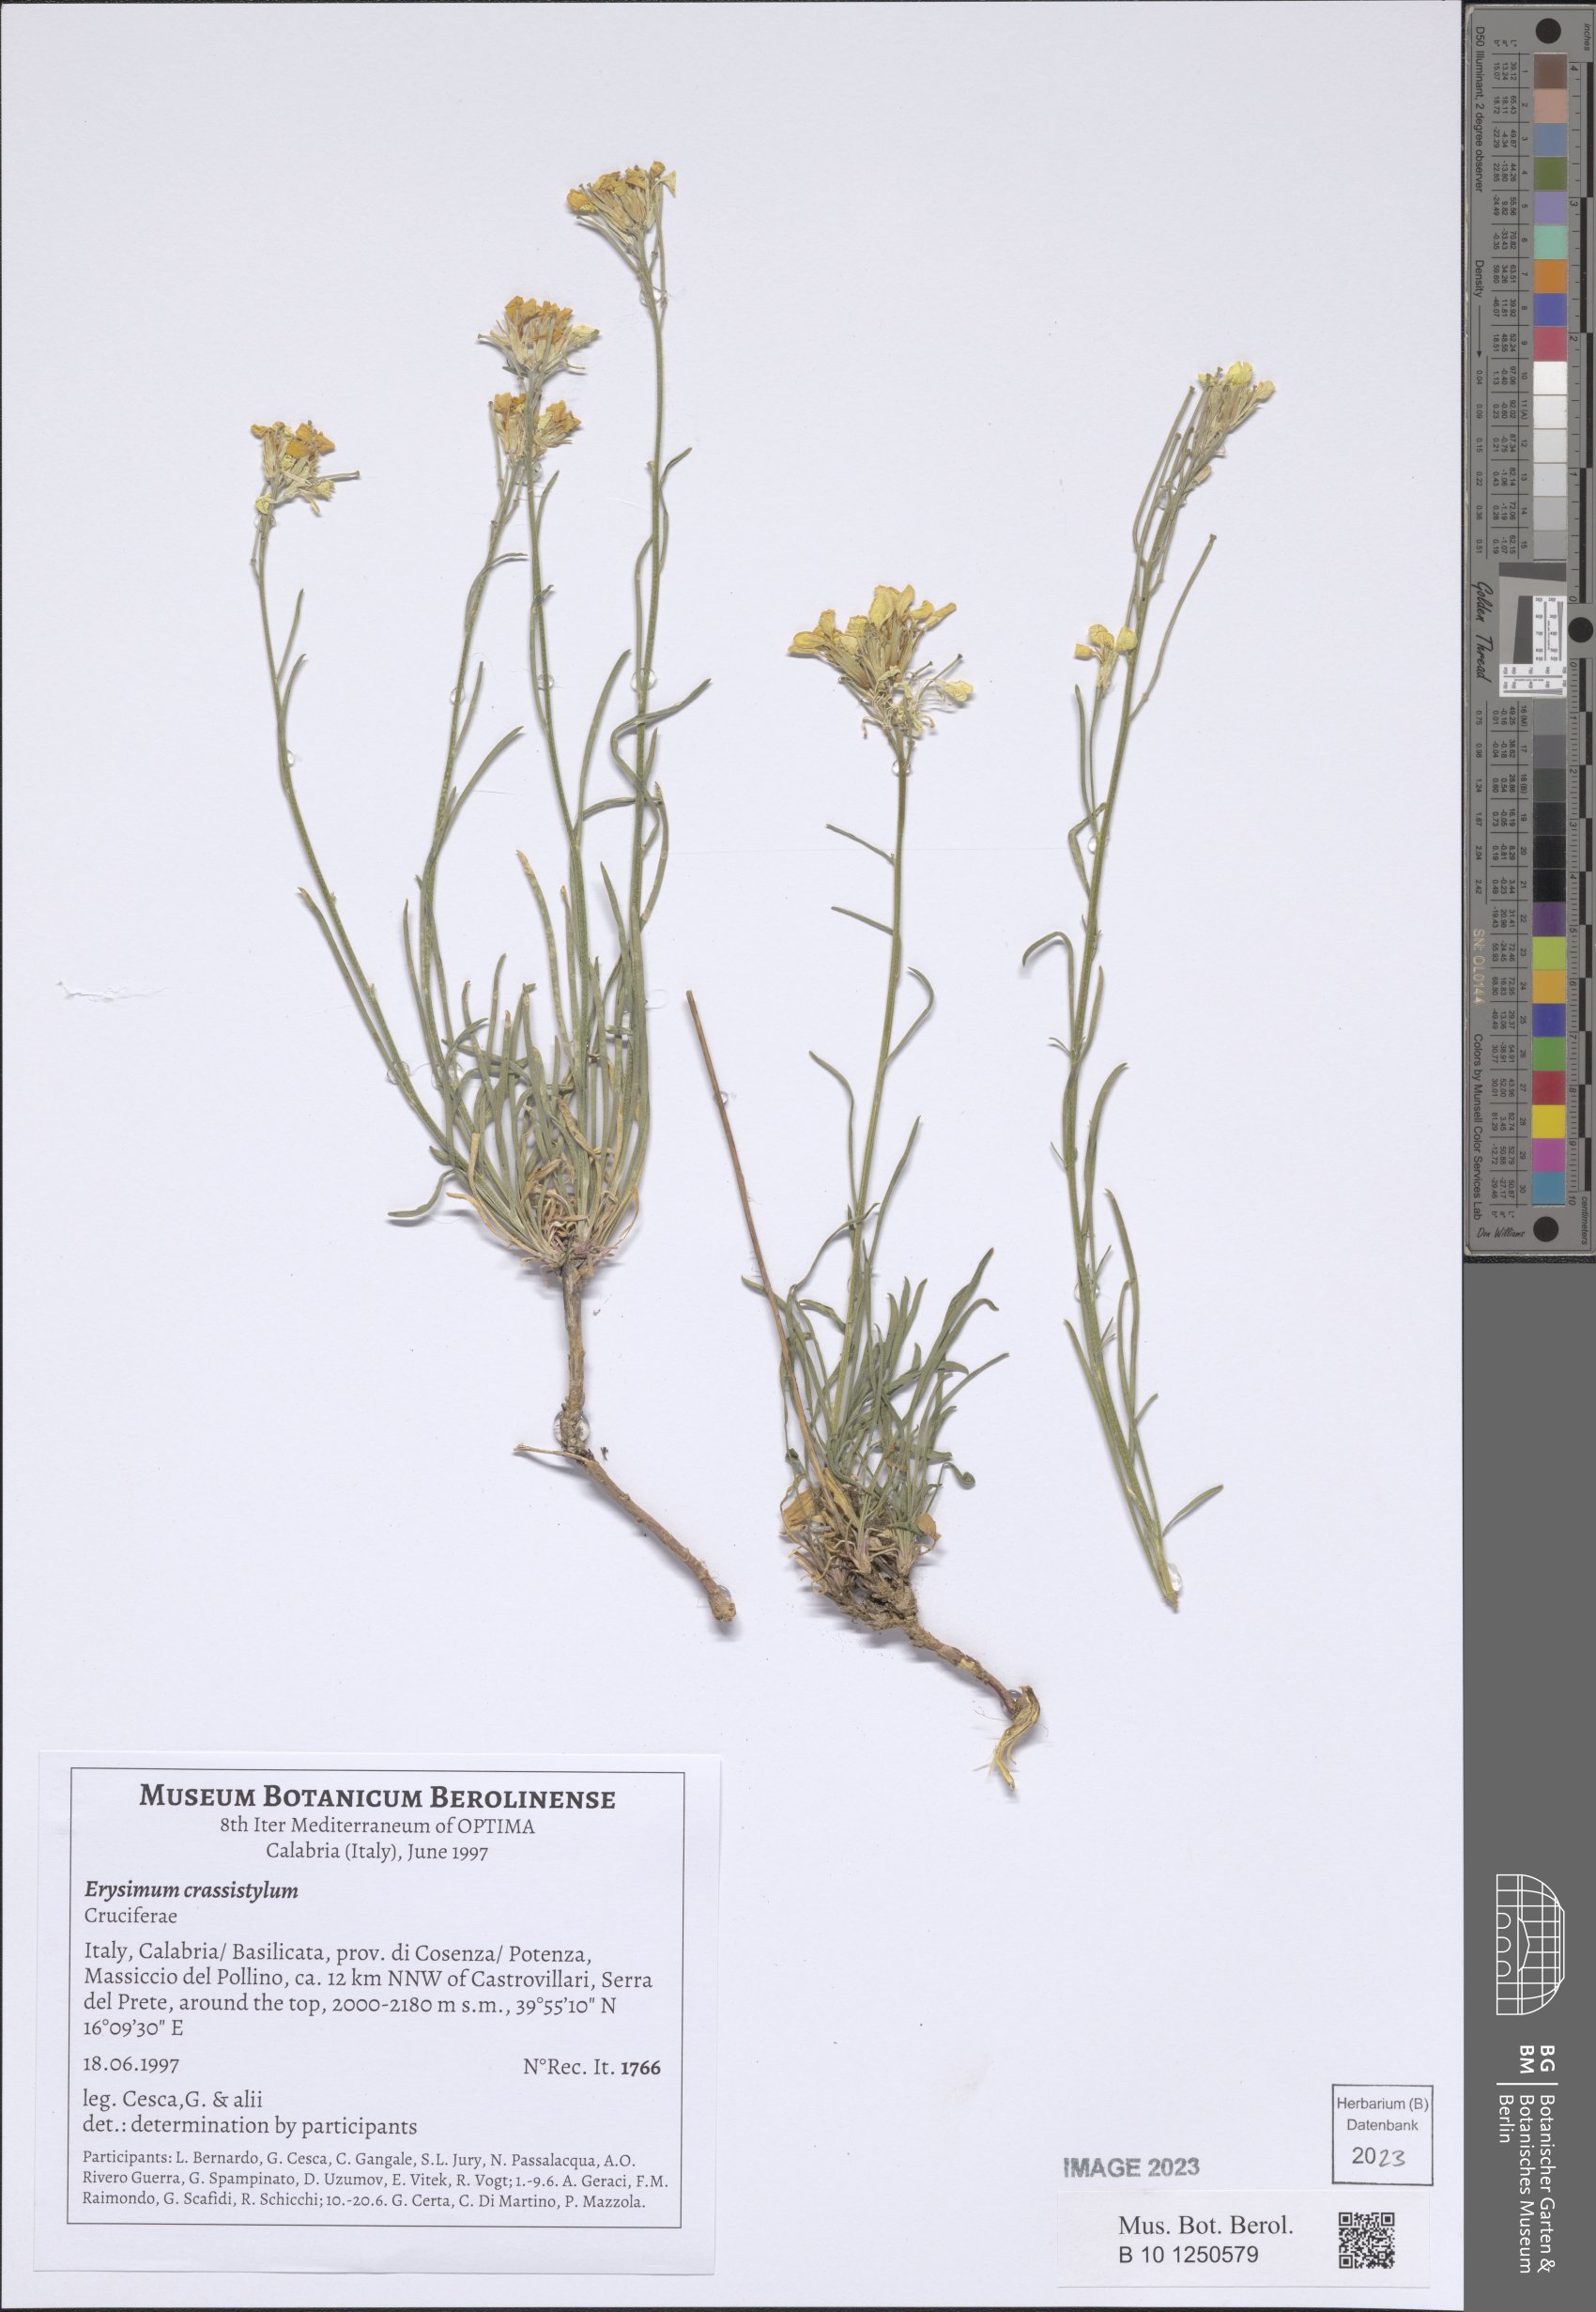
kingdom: Plantae
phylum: Tracheophyta
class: Magnoliopsida
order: Brassicales
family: Brassicaceae
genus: Erysimum
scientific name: Erysimum crassistylum
